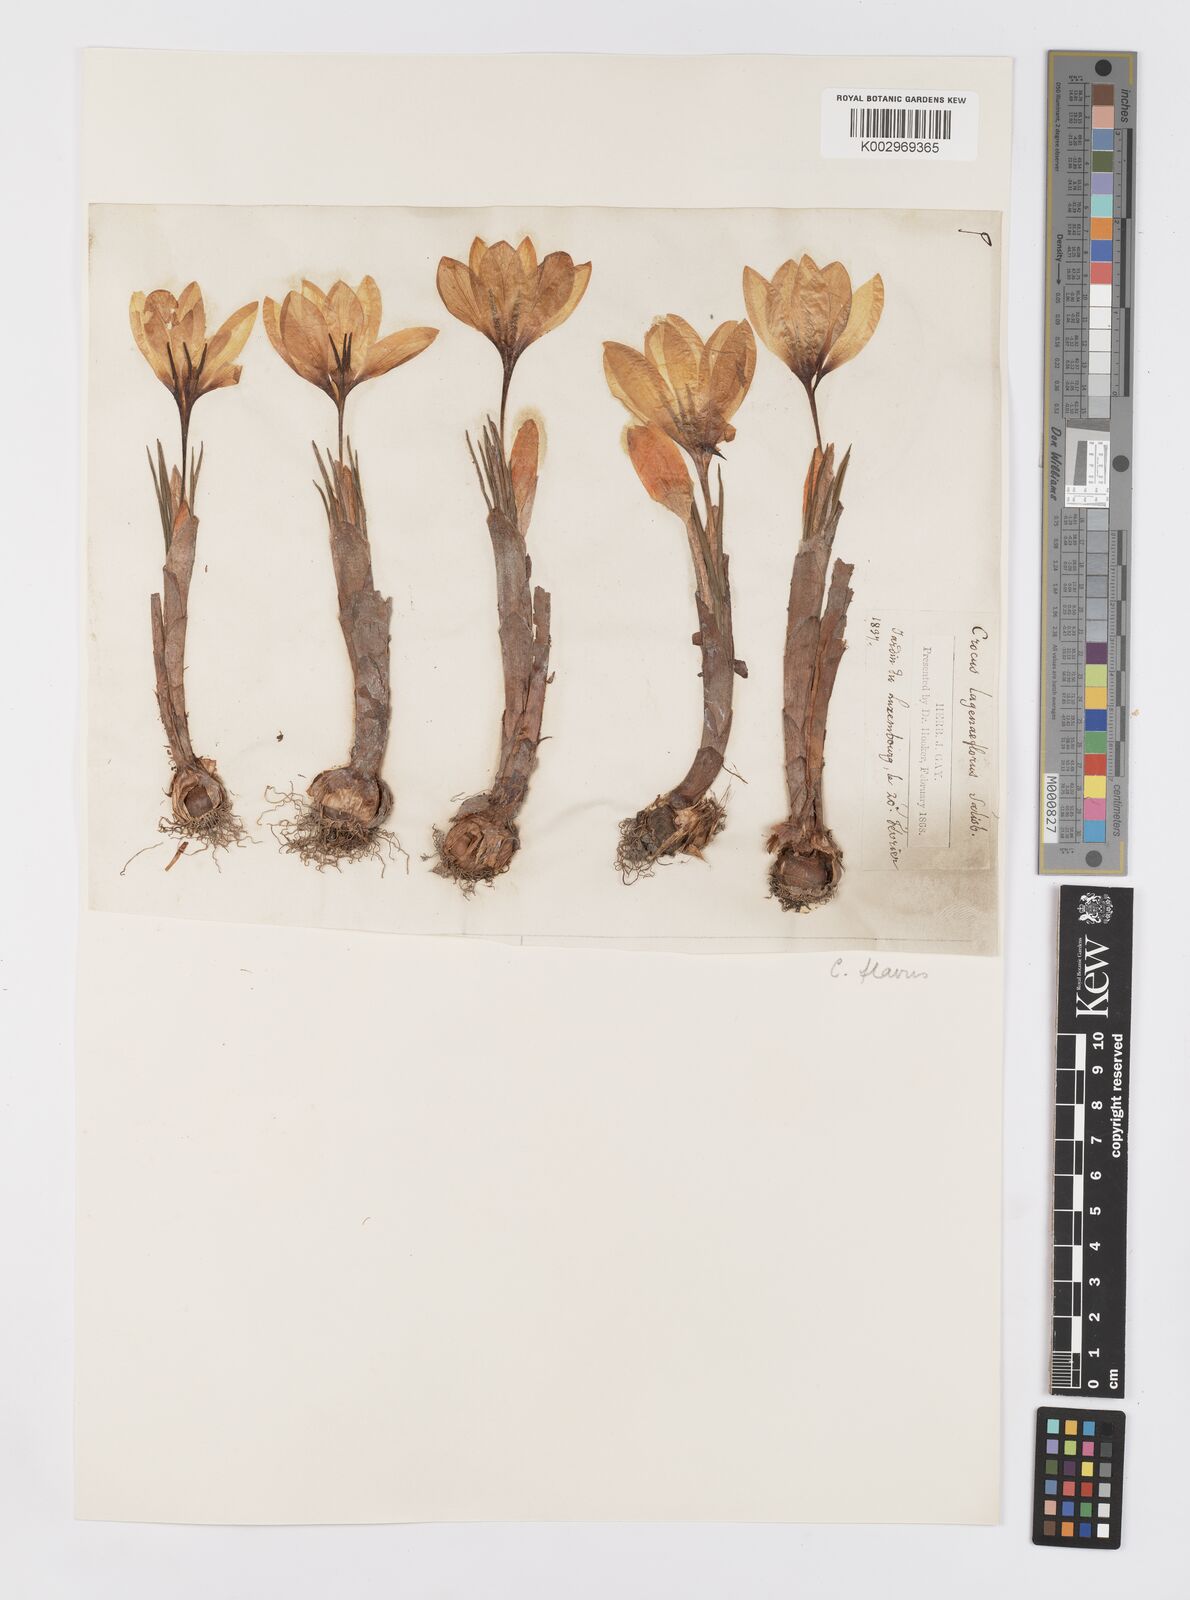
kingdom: Plantae
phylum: Tracheophyta
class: Liliopsida
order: Asparagales
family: Iridaceae
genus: Crocus
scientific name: Crocus flavus
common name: Yellow crocus
